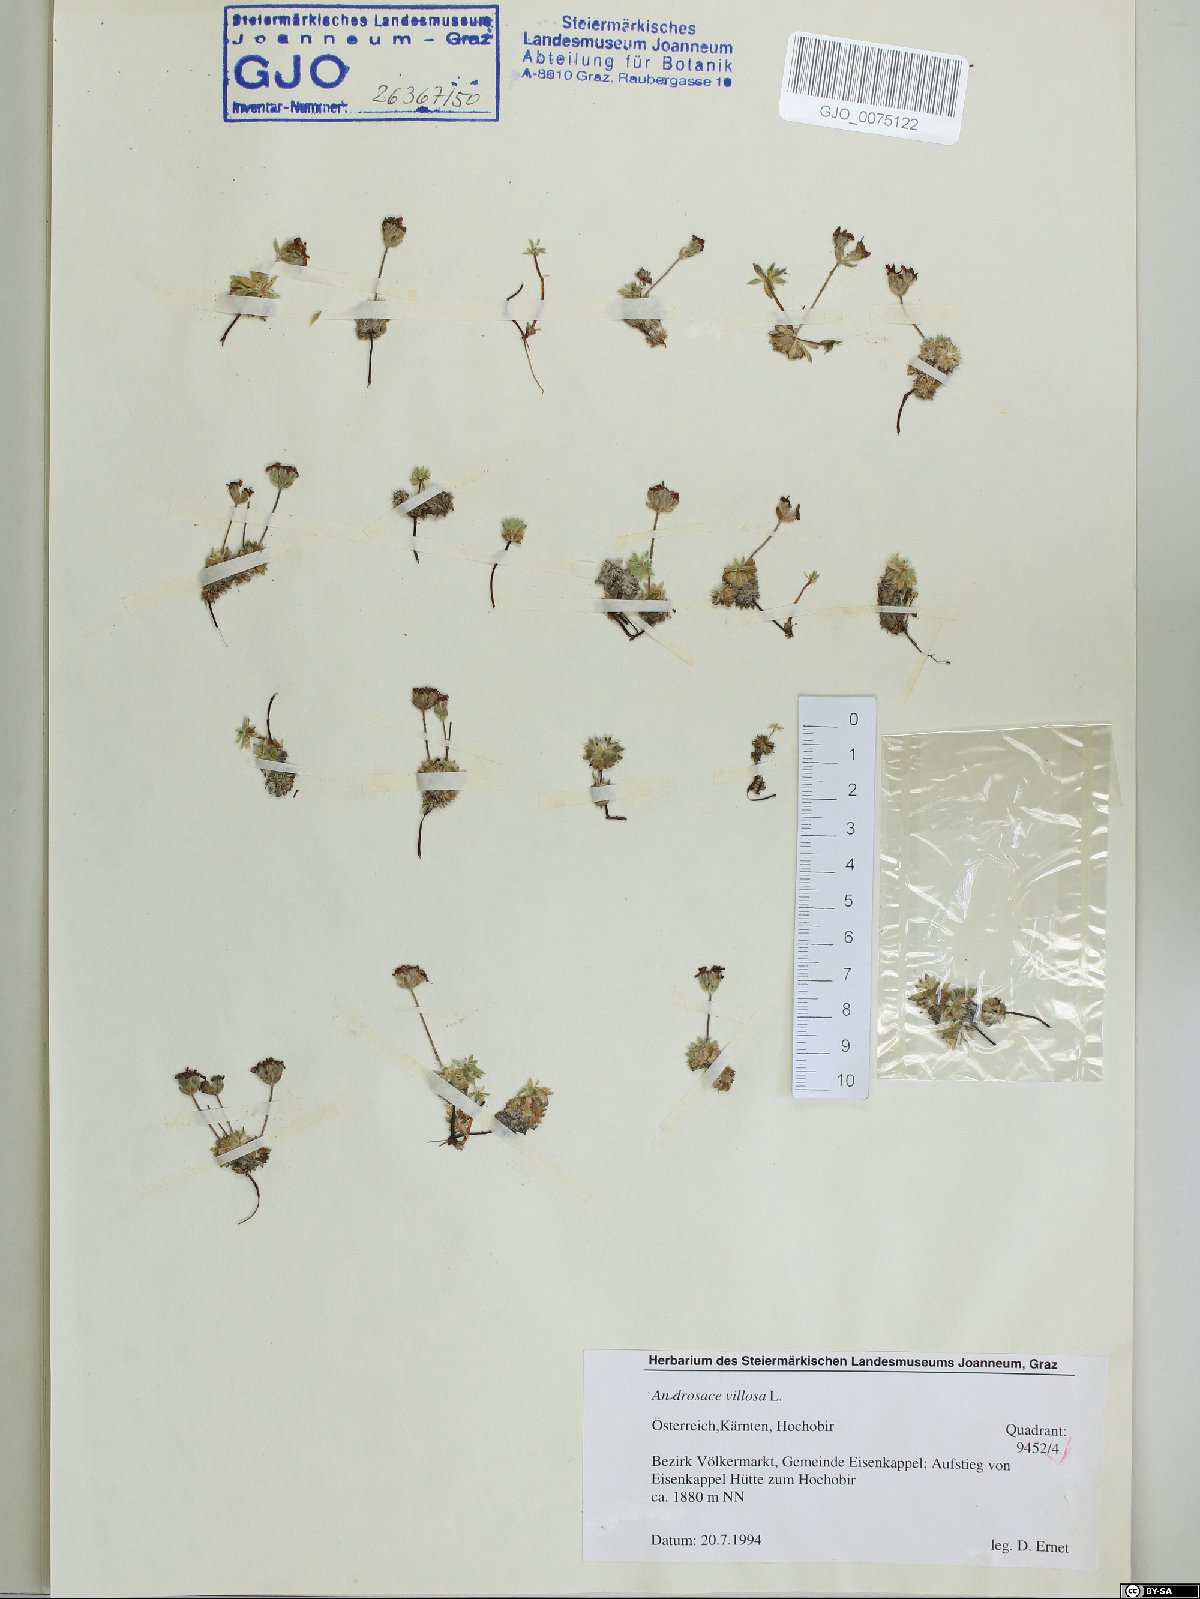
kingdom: Plantae
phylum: Tracheophyta
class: Magnoliopsida
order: Ericales
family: Primulaceae
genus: Androsace
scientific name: Androsace villosa
